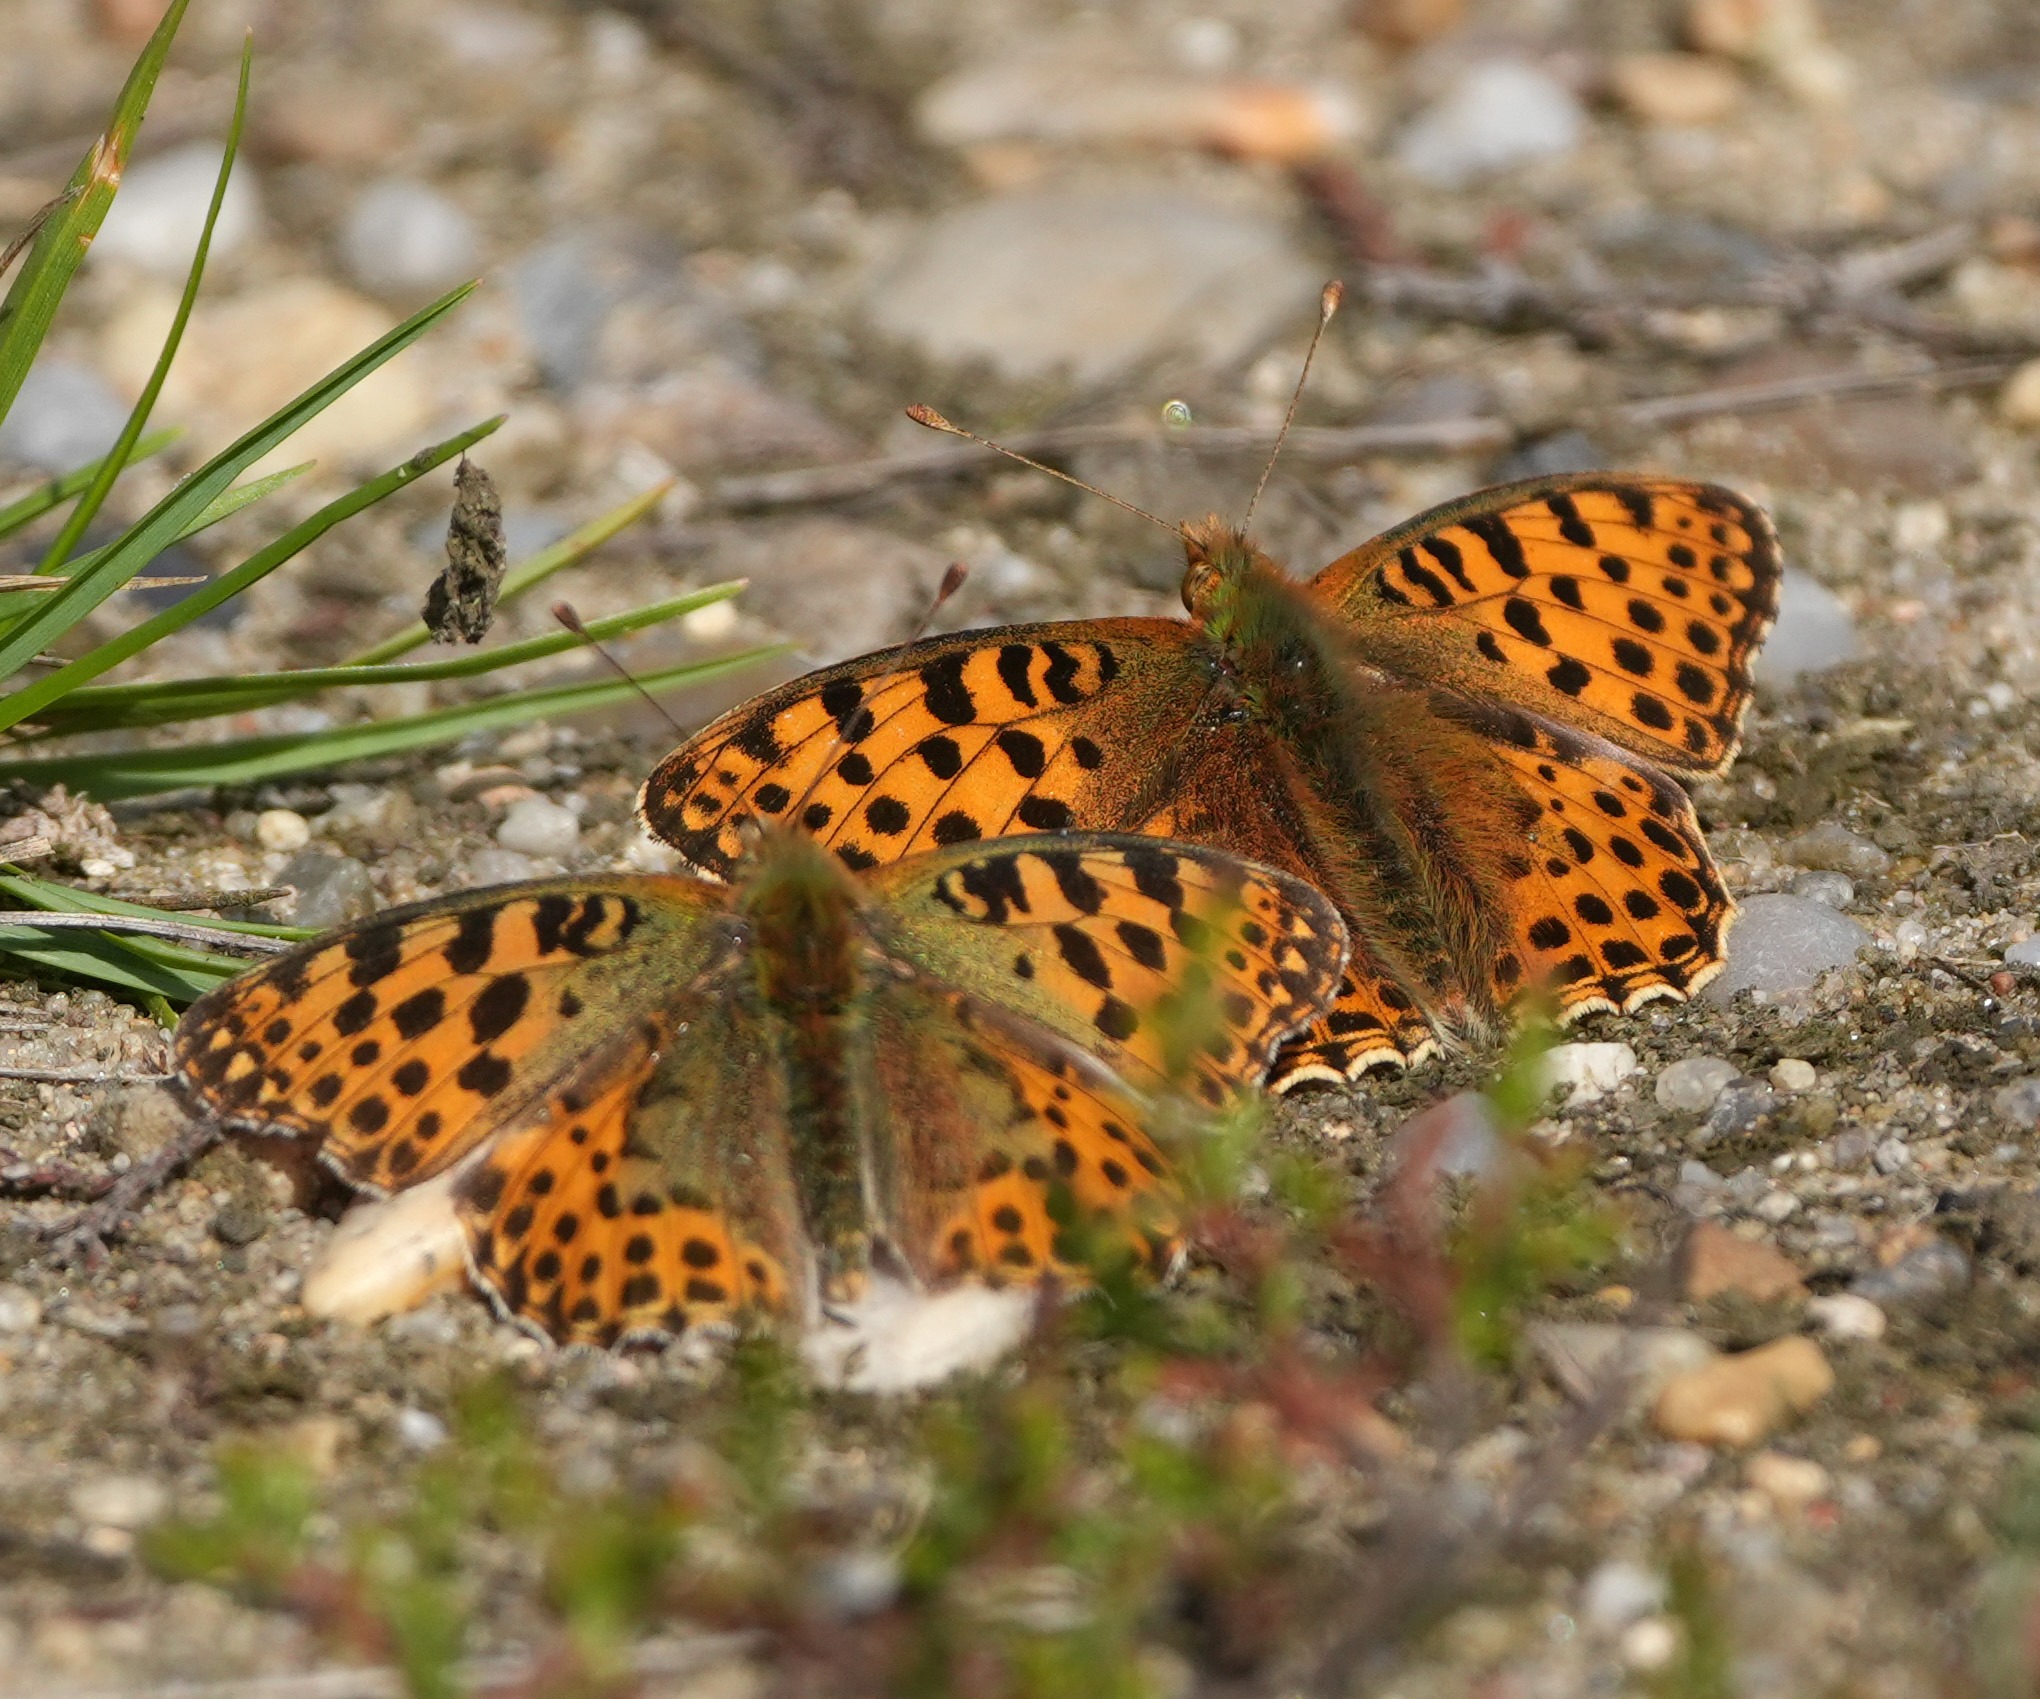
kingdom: Animalia
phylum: Arthropoda
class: Insecta
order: Lepidoptera
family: Nymphalidae
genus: Issoria
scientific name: Issoria lathonia
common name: Storplettet perlemorsommerfugl
